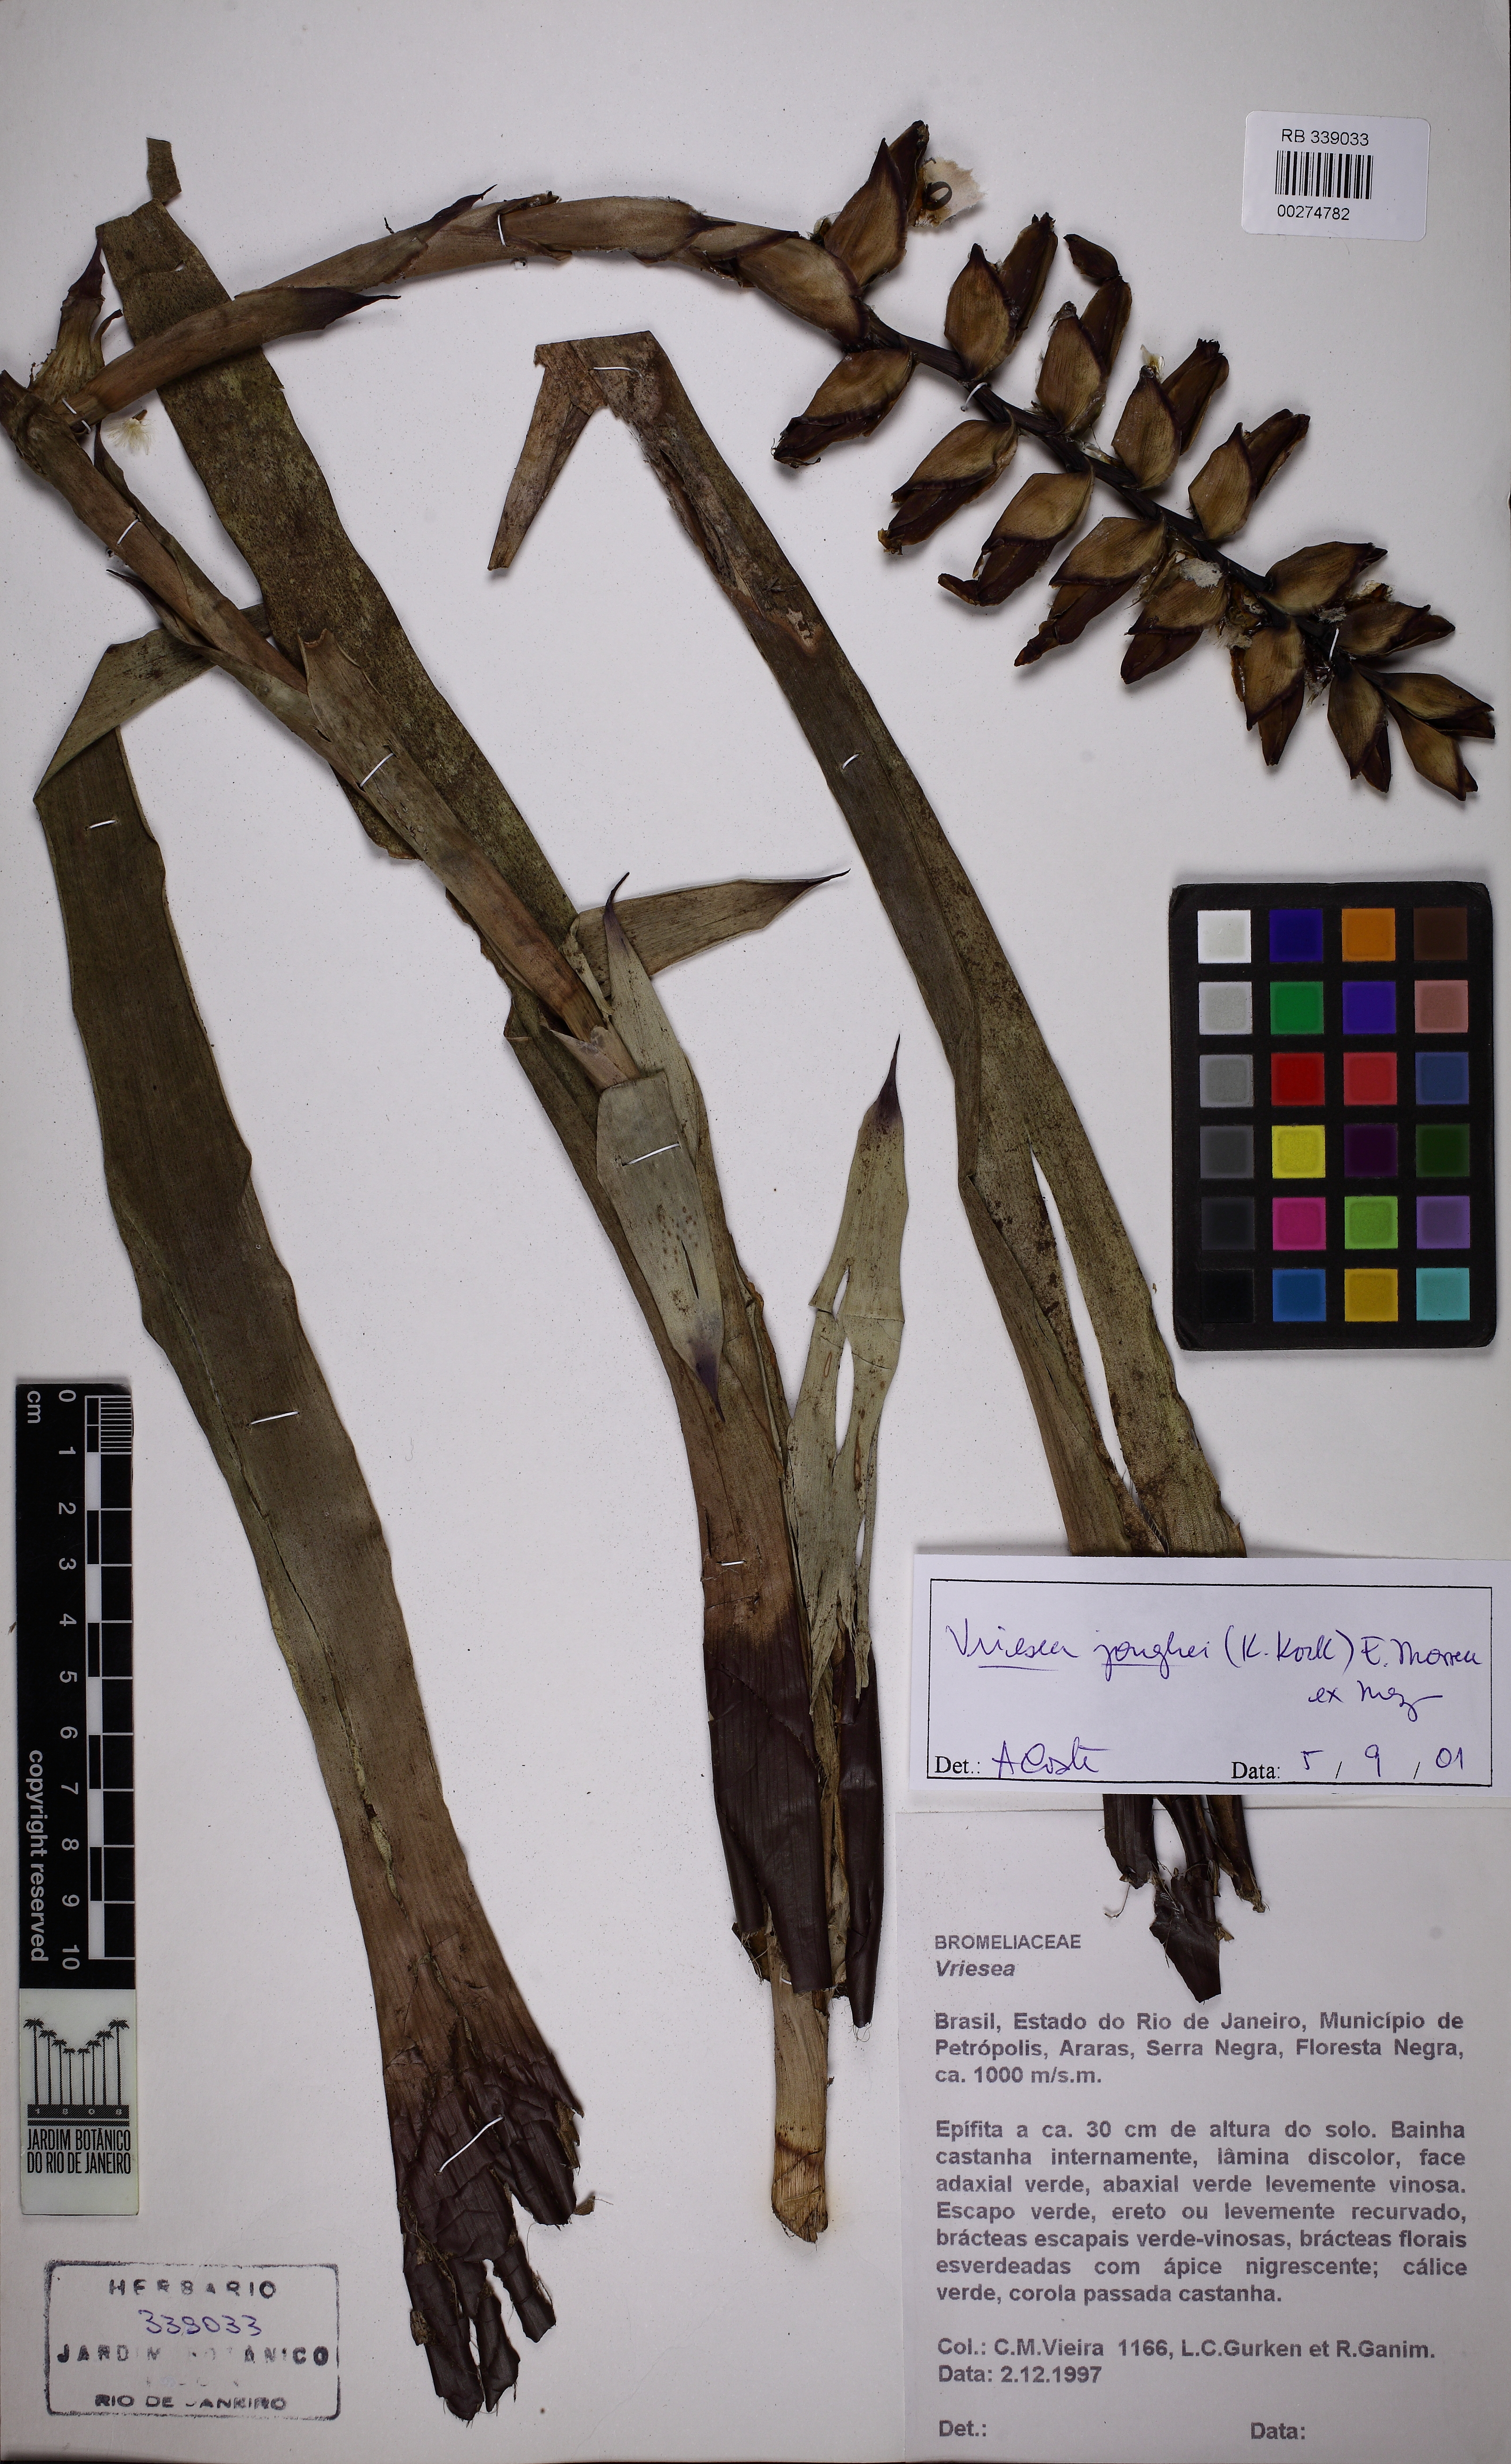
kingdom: Plantae
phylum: Tracheophyta
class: Liliopsida
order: Poales
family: Bromeliaceae
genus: Vriesea
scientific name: Vriesea jonghei
